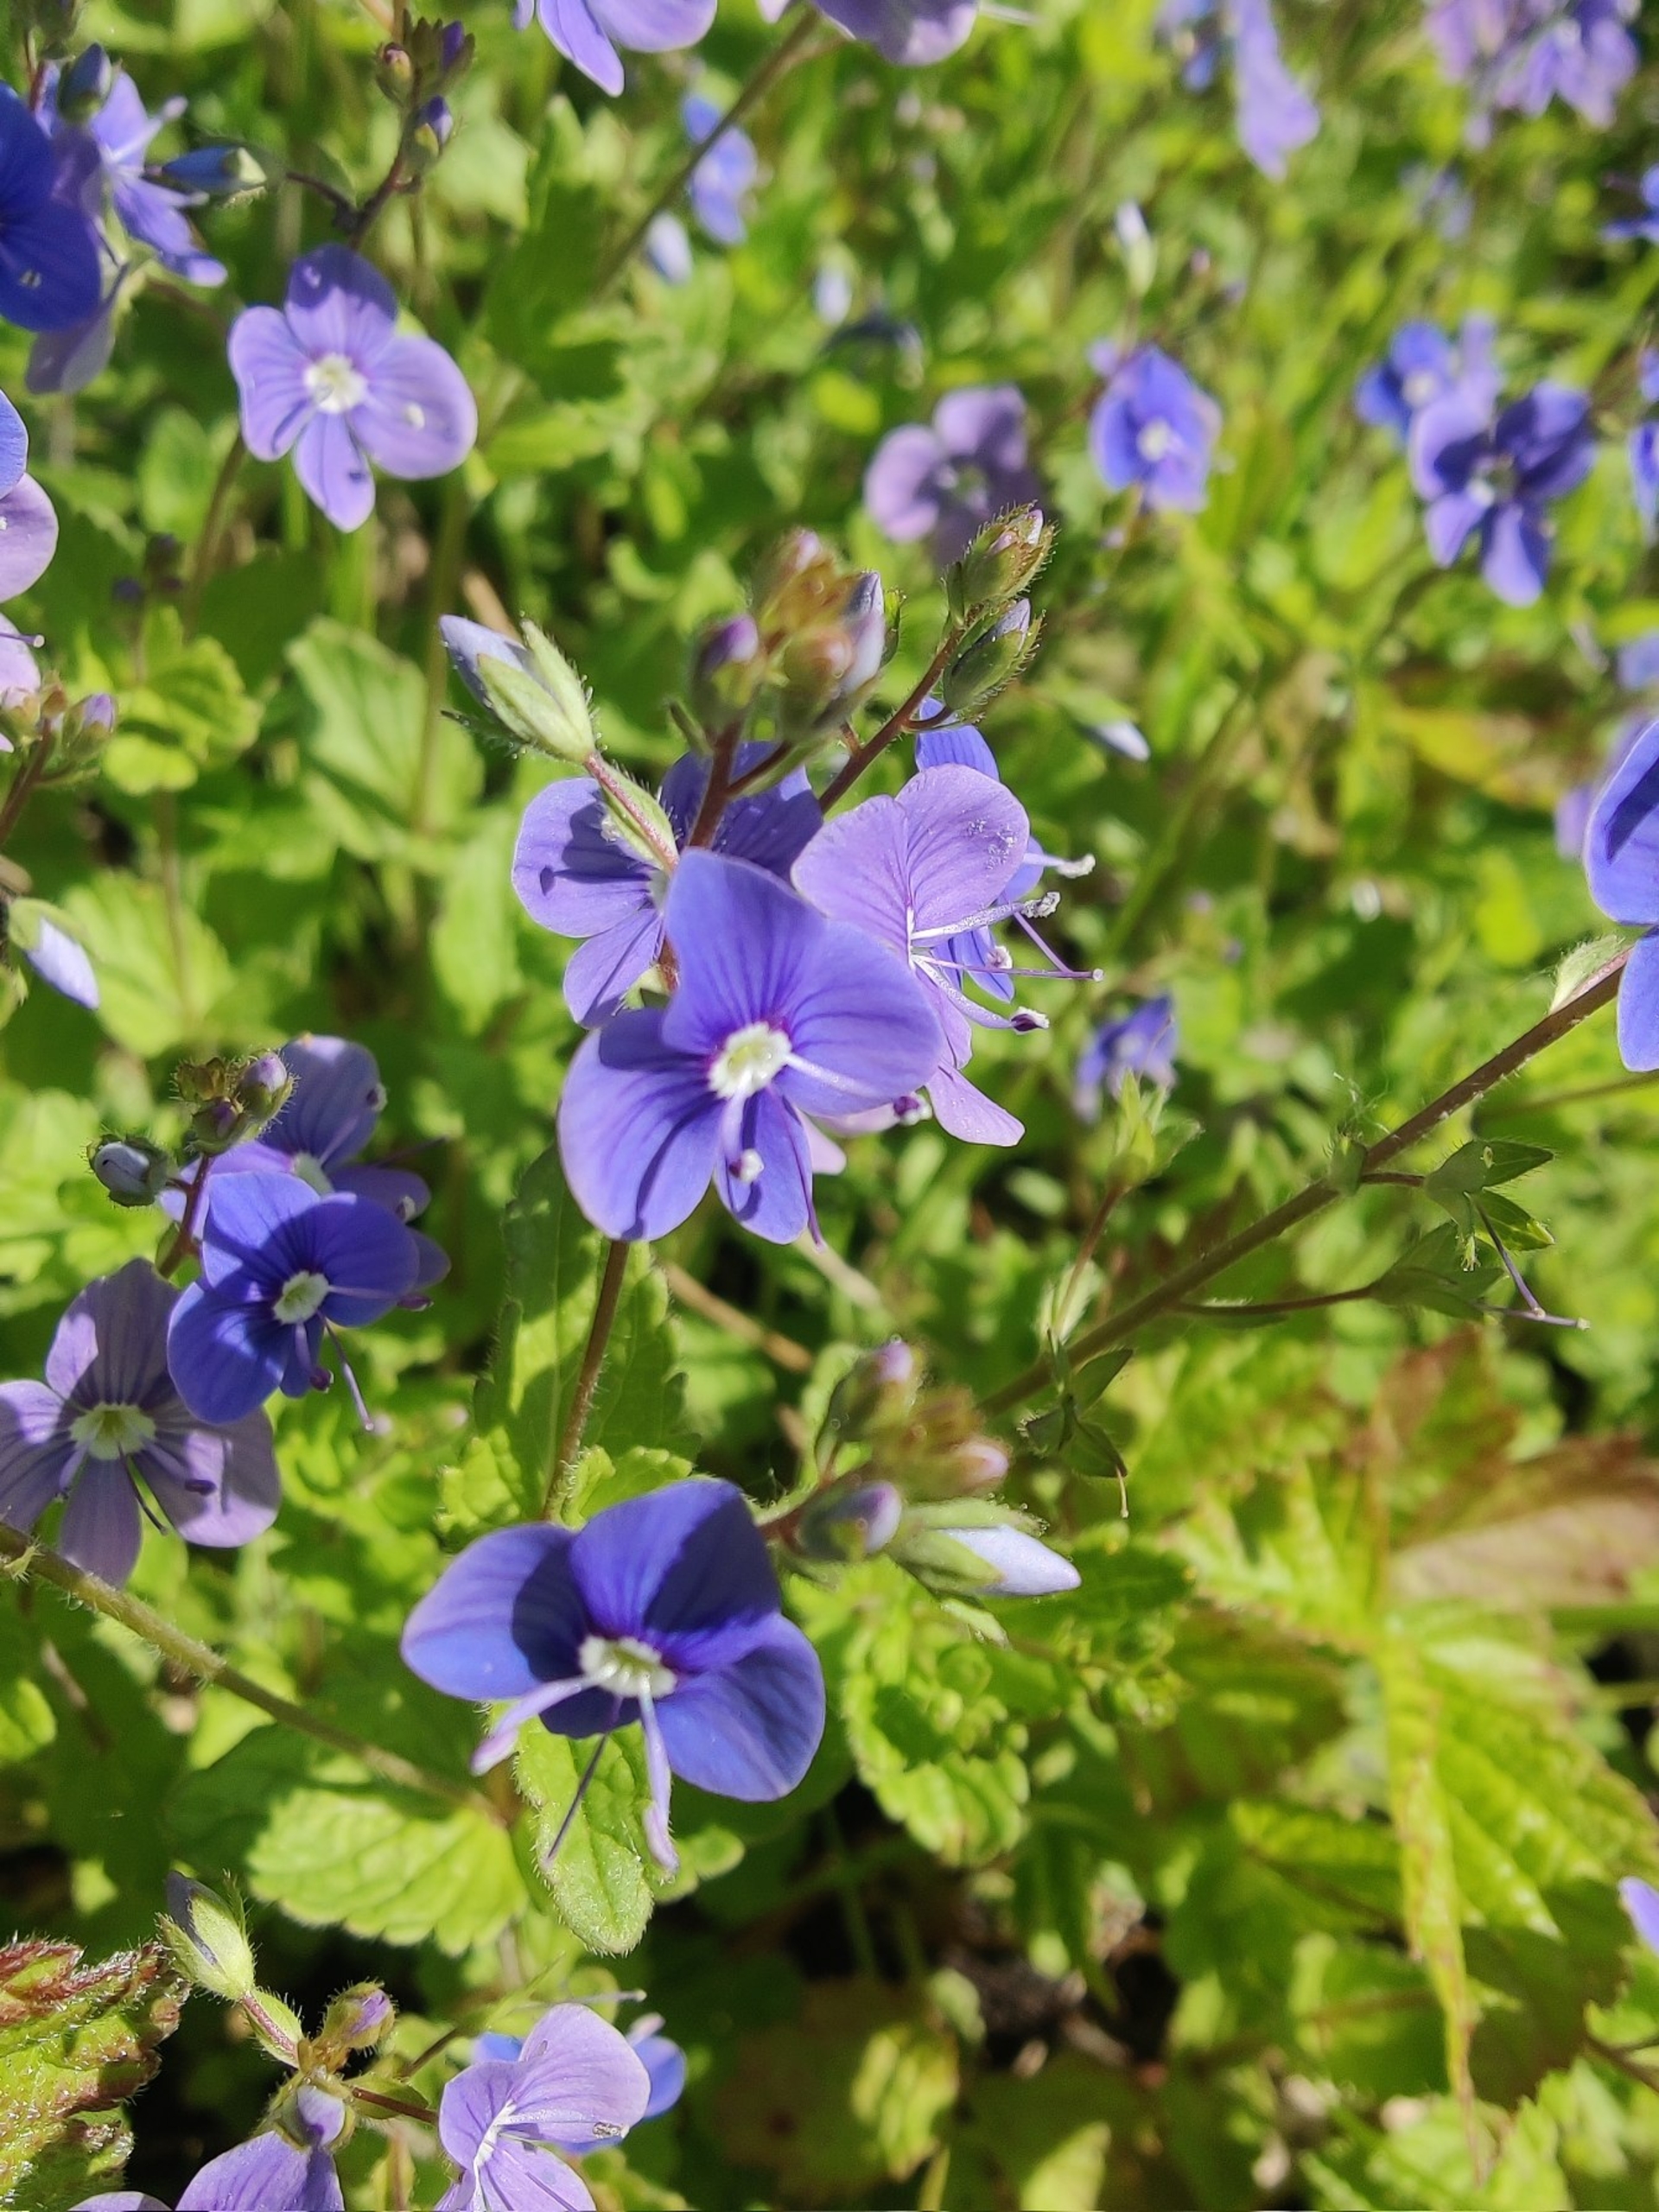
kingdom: Plantae
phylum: Tracheophyta
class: Magnoliopsida
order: Lamiales
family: Plantaginaceae
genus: Veronica
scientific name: Veronica chamaedrys
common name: Tveskægget ærenpris
